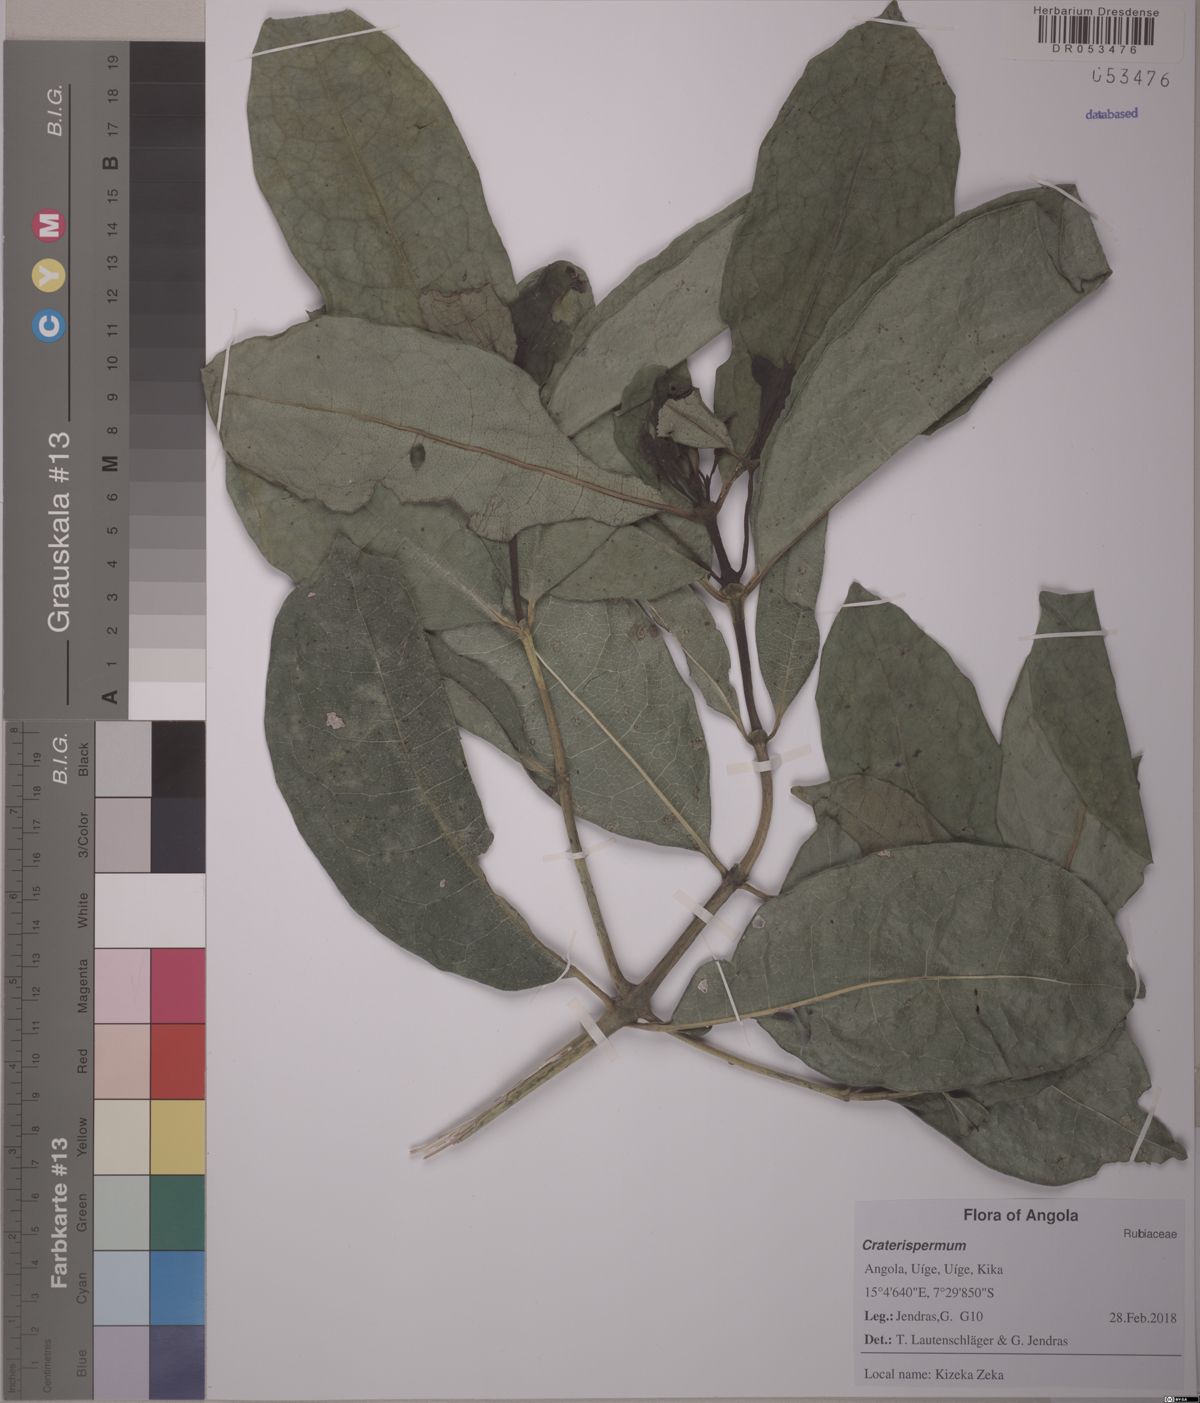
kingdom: Plantae
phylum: Tracheophyta
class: Magnoliopsida
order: Gentianales
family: Rubiaceae
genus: Craterispermum
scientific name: Craterispermum
